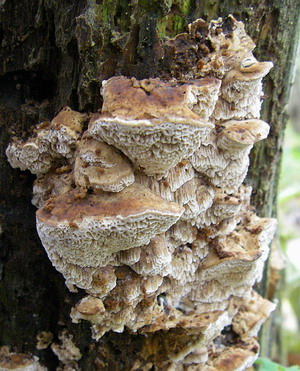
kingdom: Fungi
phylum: Basidiomycota
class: Agaricomycetes
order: Polyporales
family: Phanerochaetaceae
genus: Bjerkandera
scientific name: Bjerkandera fumosa
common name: grågul sodporesvamp
